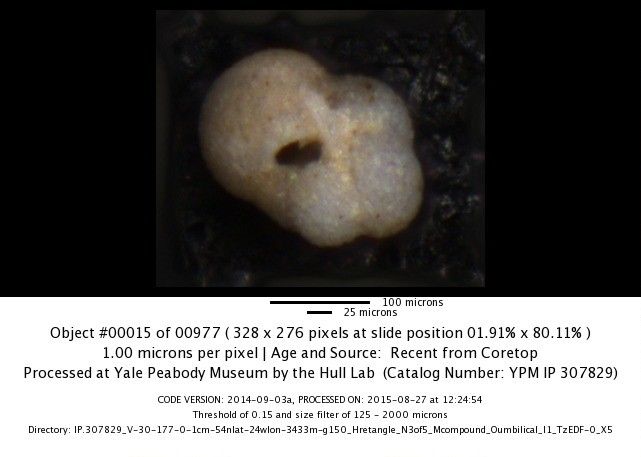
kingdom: Chromista
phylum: Foraminifera
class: Globothalamea
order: Rotaliida
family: Globorotaliidae
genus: Neogloboquadrina
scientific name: Neogloboquadrina incompta
